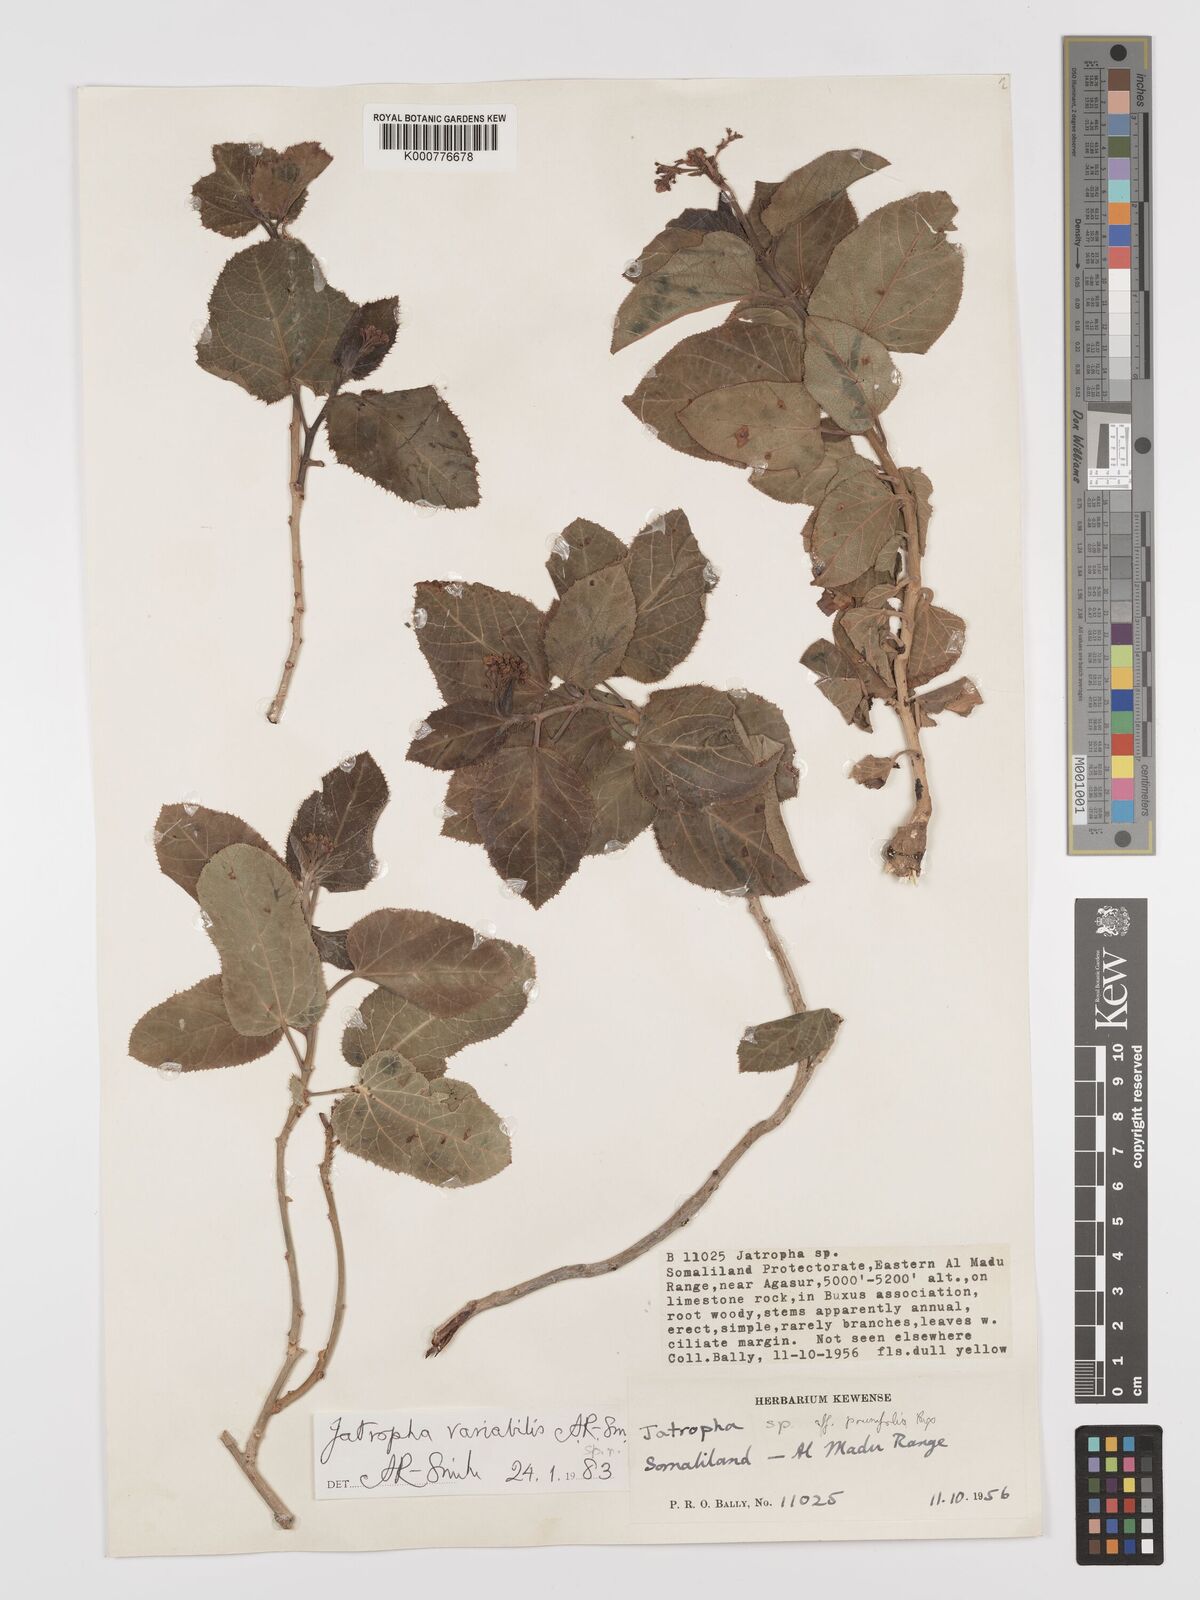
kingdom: Plantae
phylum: Tracheophyta
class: Magnoliopsida
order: Malpighiales
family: Euphorbiaceae
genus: Jatropha
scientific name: Jatropha variabilis
